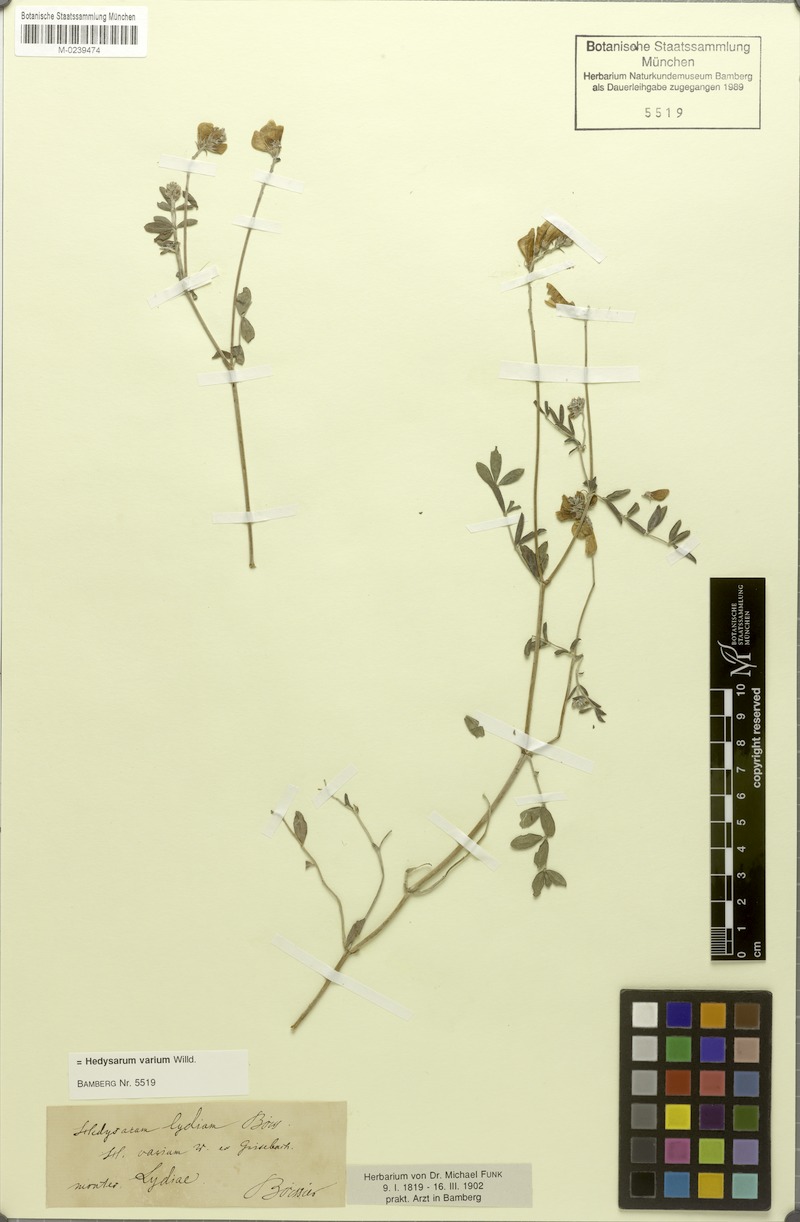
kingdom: Plantae
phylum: Tracheophyta
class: Magnoliopsida
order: Fabales
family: Fabaceae
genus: Hedysarum
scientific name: Hedysarum varium
